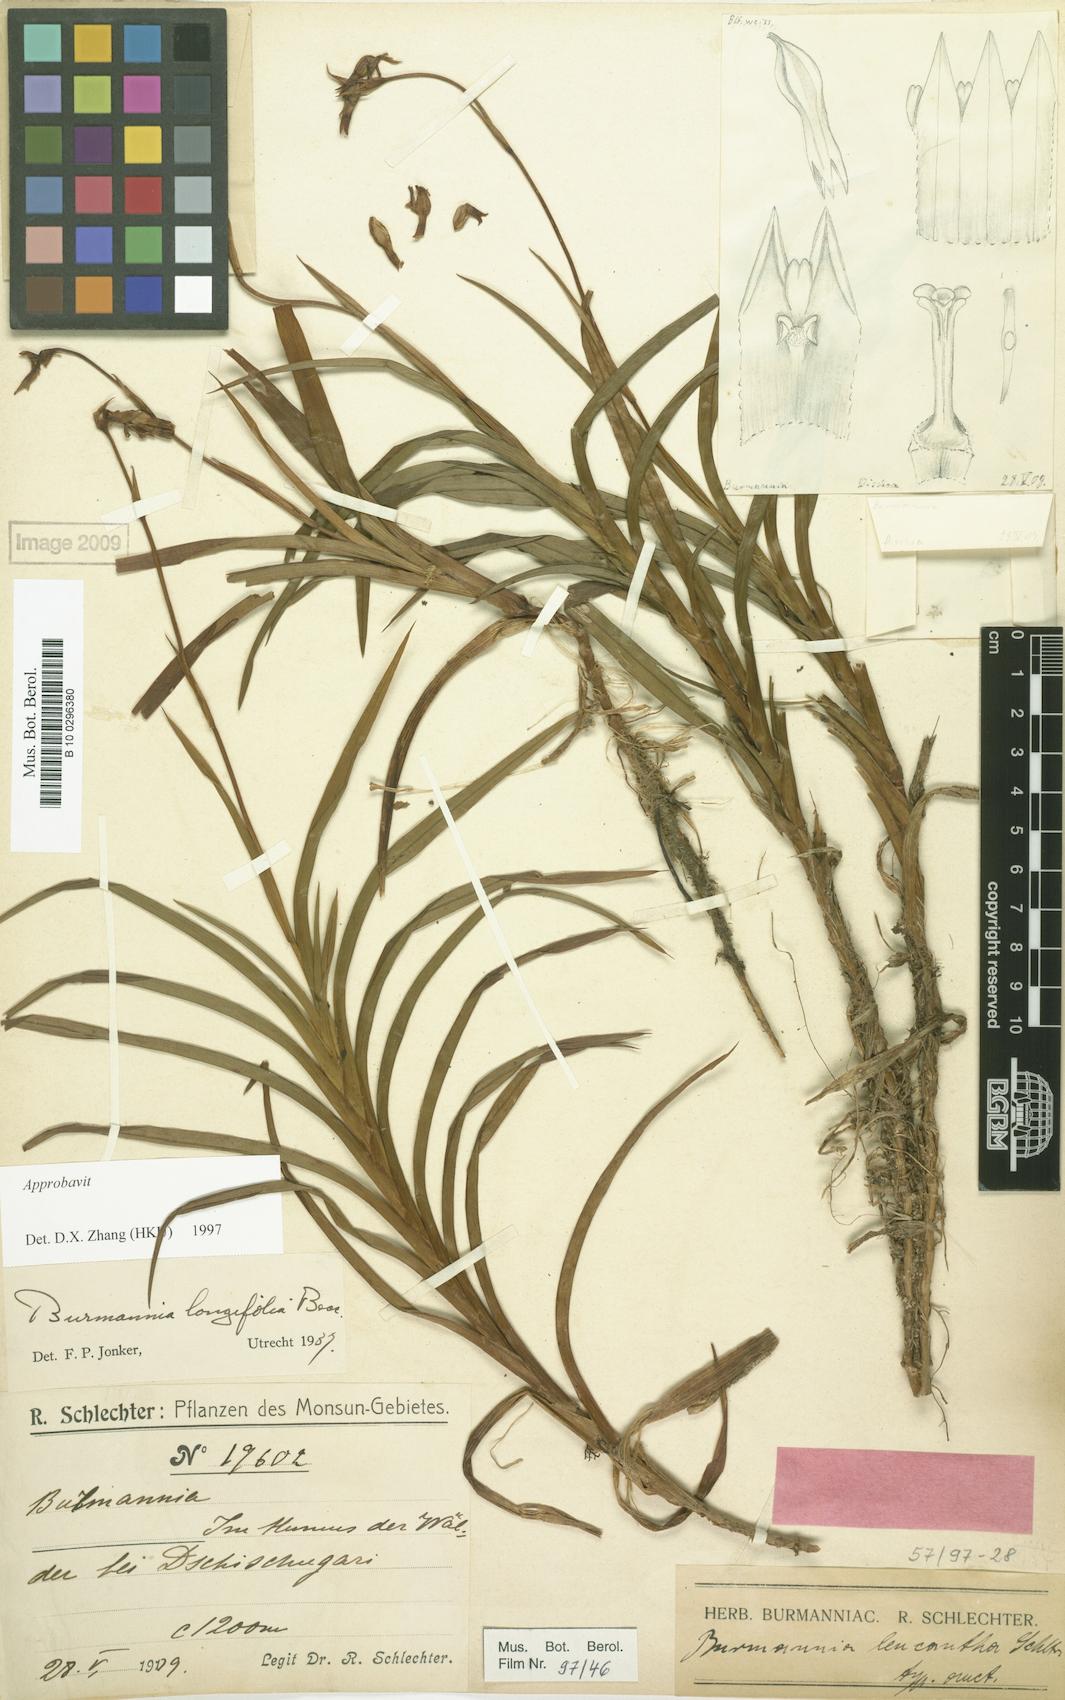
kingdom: Plantae
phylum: Tracheophyta
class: Liliopsida
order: Dioscoreales
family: Burmanniaceae
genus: Burmannia
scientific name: Burmannia longifolia
